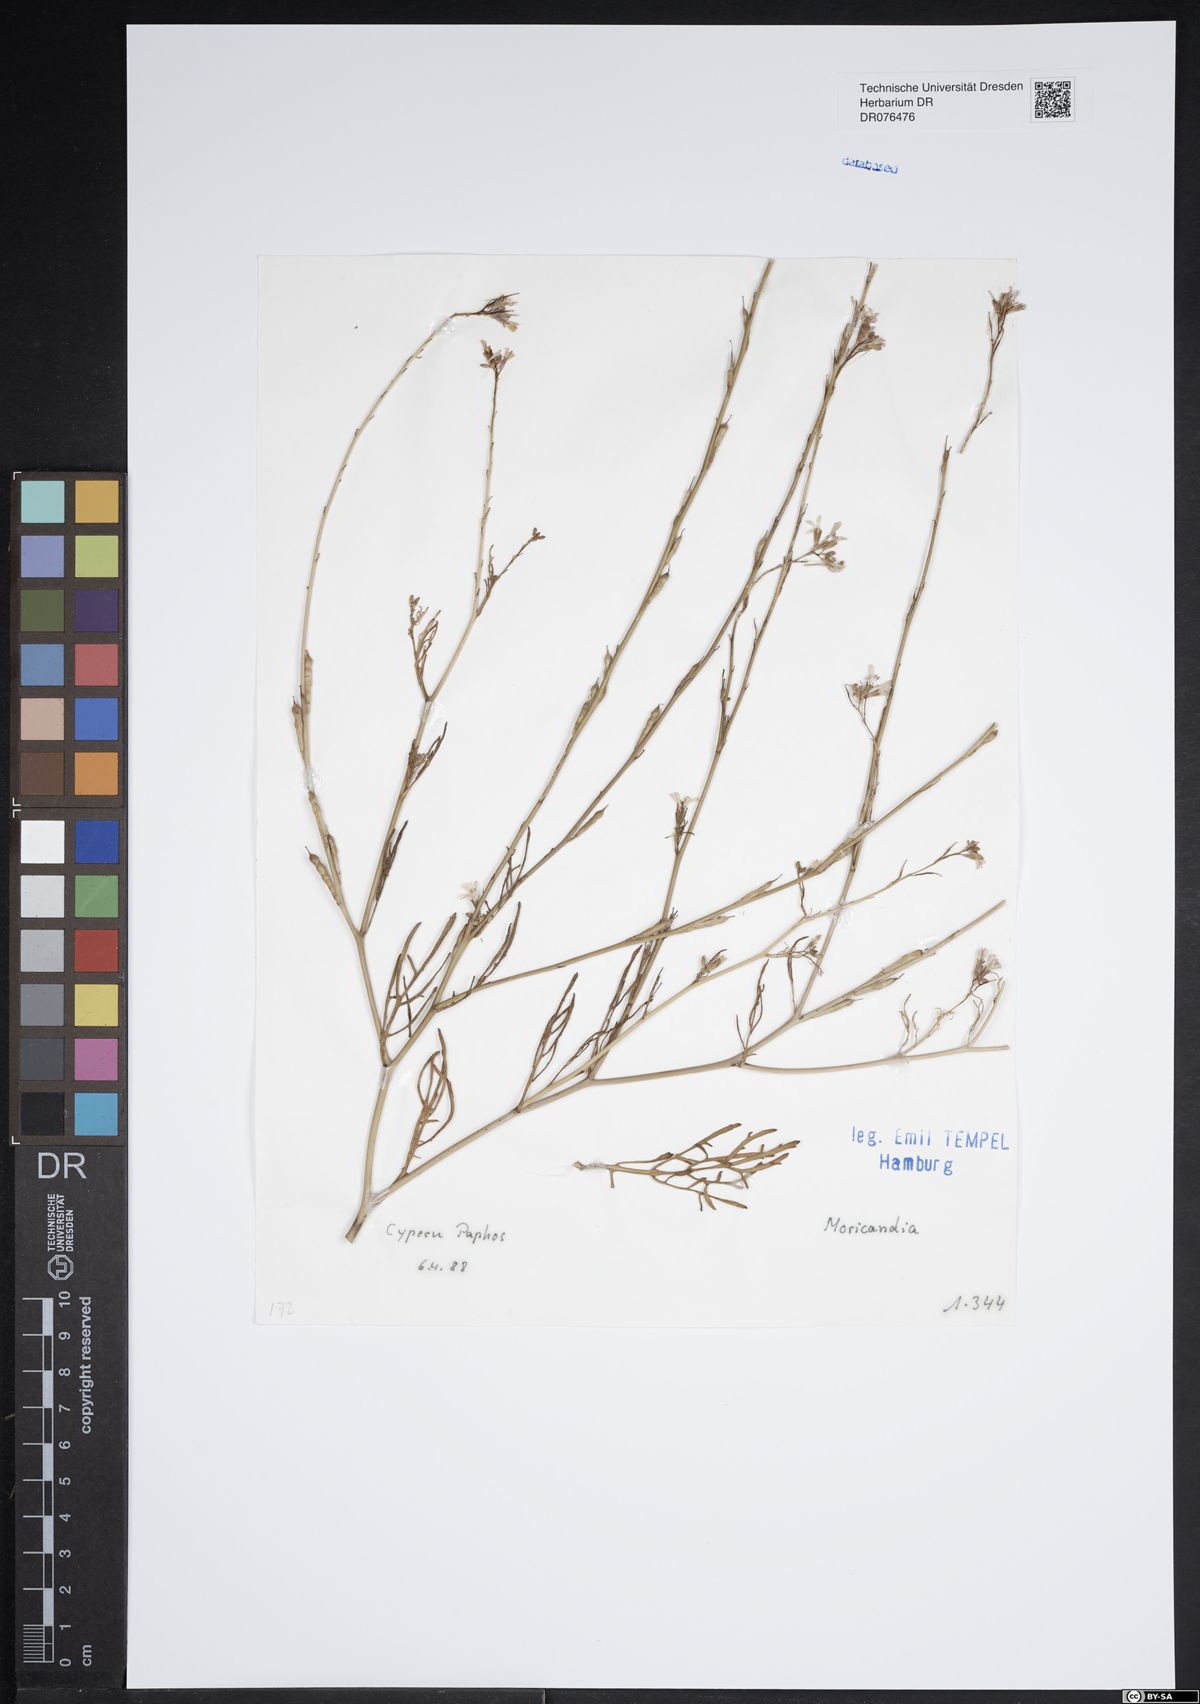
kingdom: Plantae
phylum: Tracheophyta
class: Magnoliopsida
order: Brassicales
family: Brassicaceae
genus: Moricandia
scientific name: Moricandia
